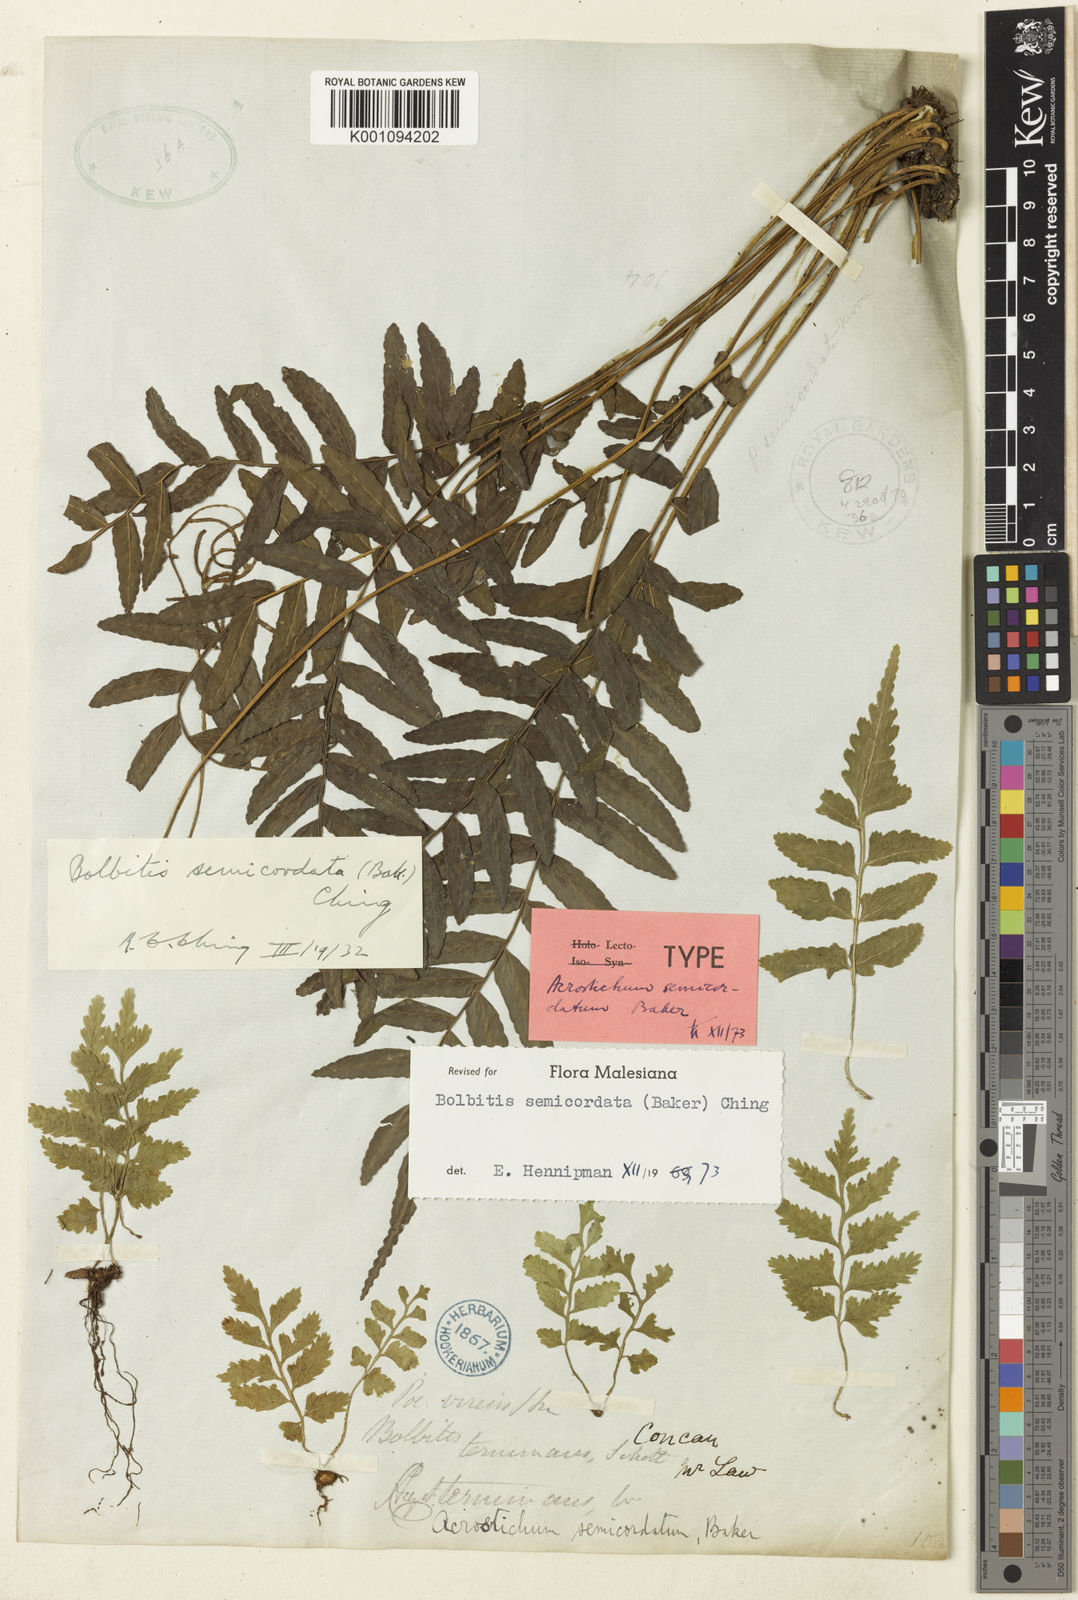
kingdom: Plantae
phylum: Tracheophyta
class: Polypodiopsida
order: Polypodiales
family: Dryopteridaceae
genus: Bolbitis
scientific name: Bolbitis semicordata
